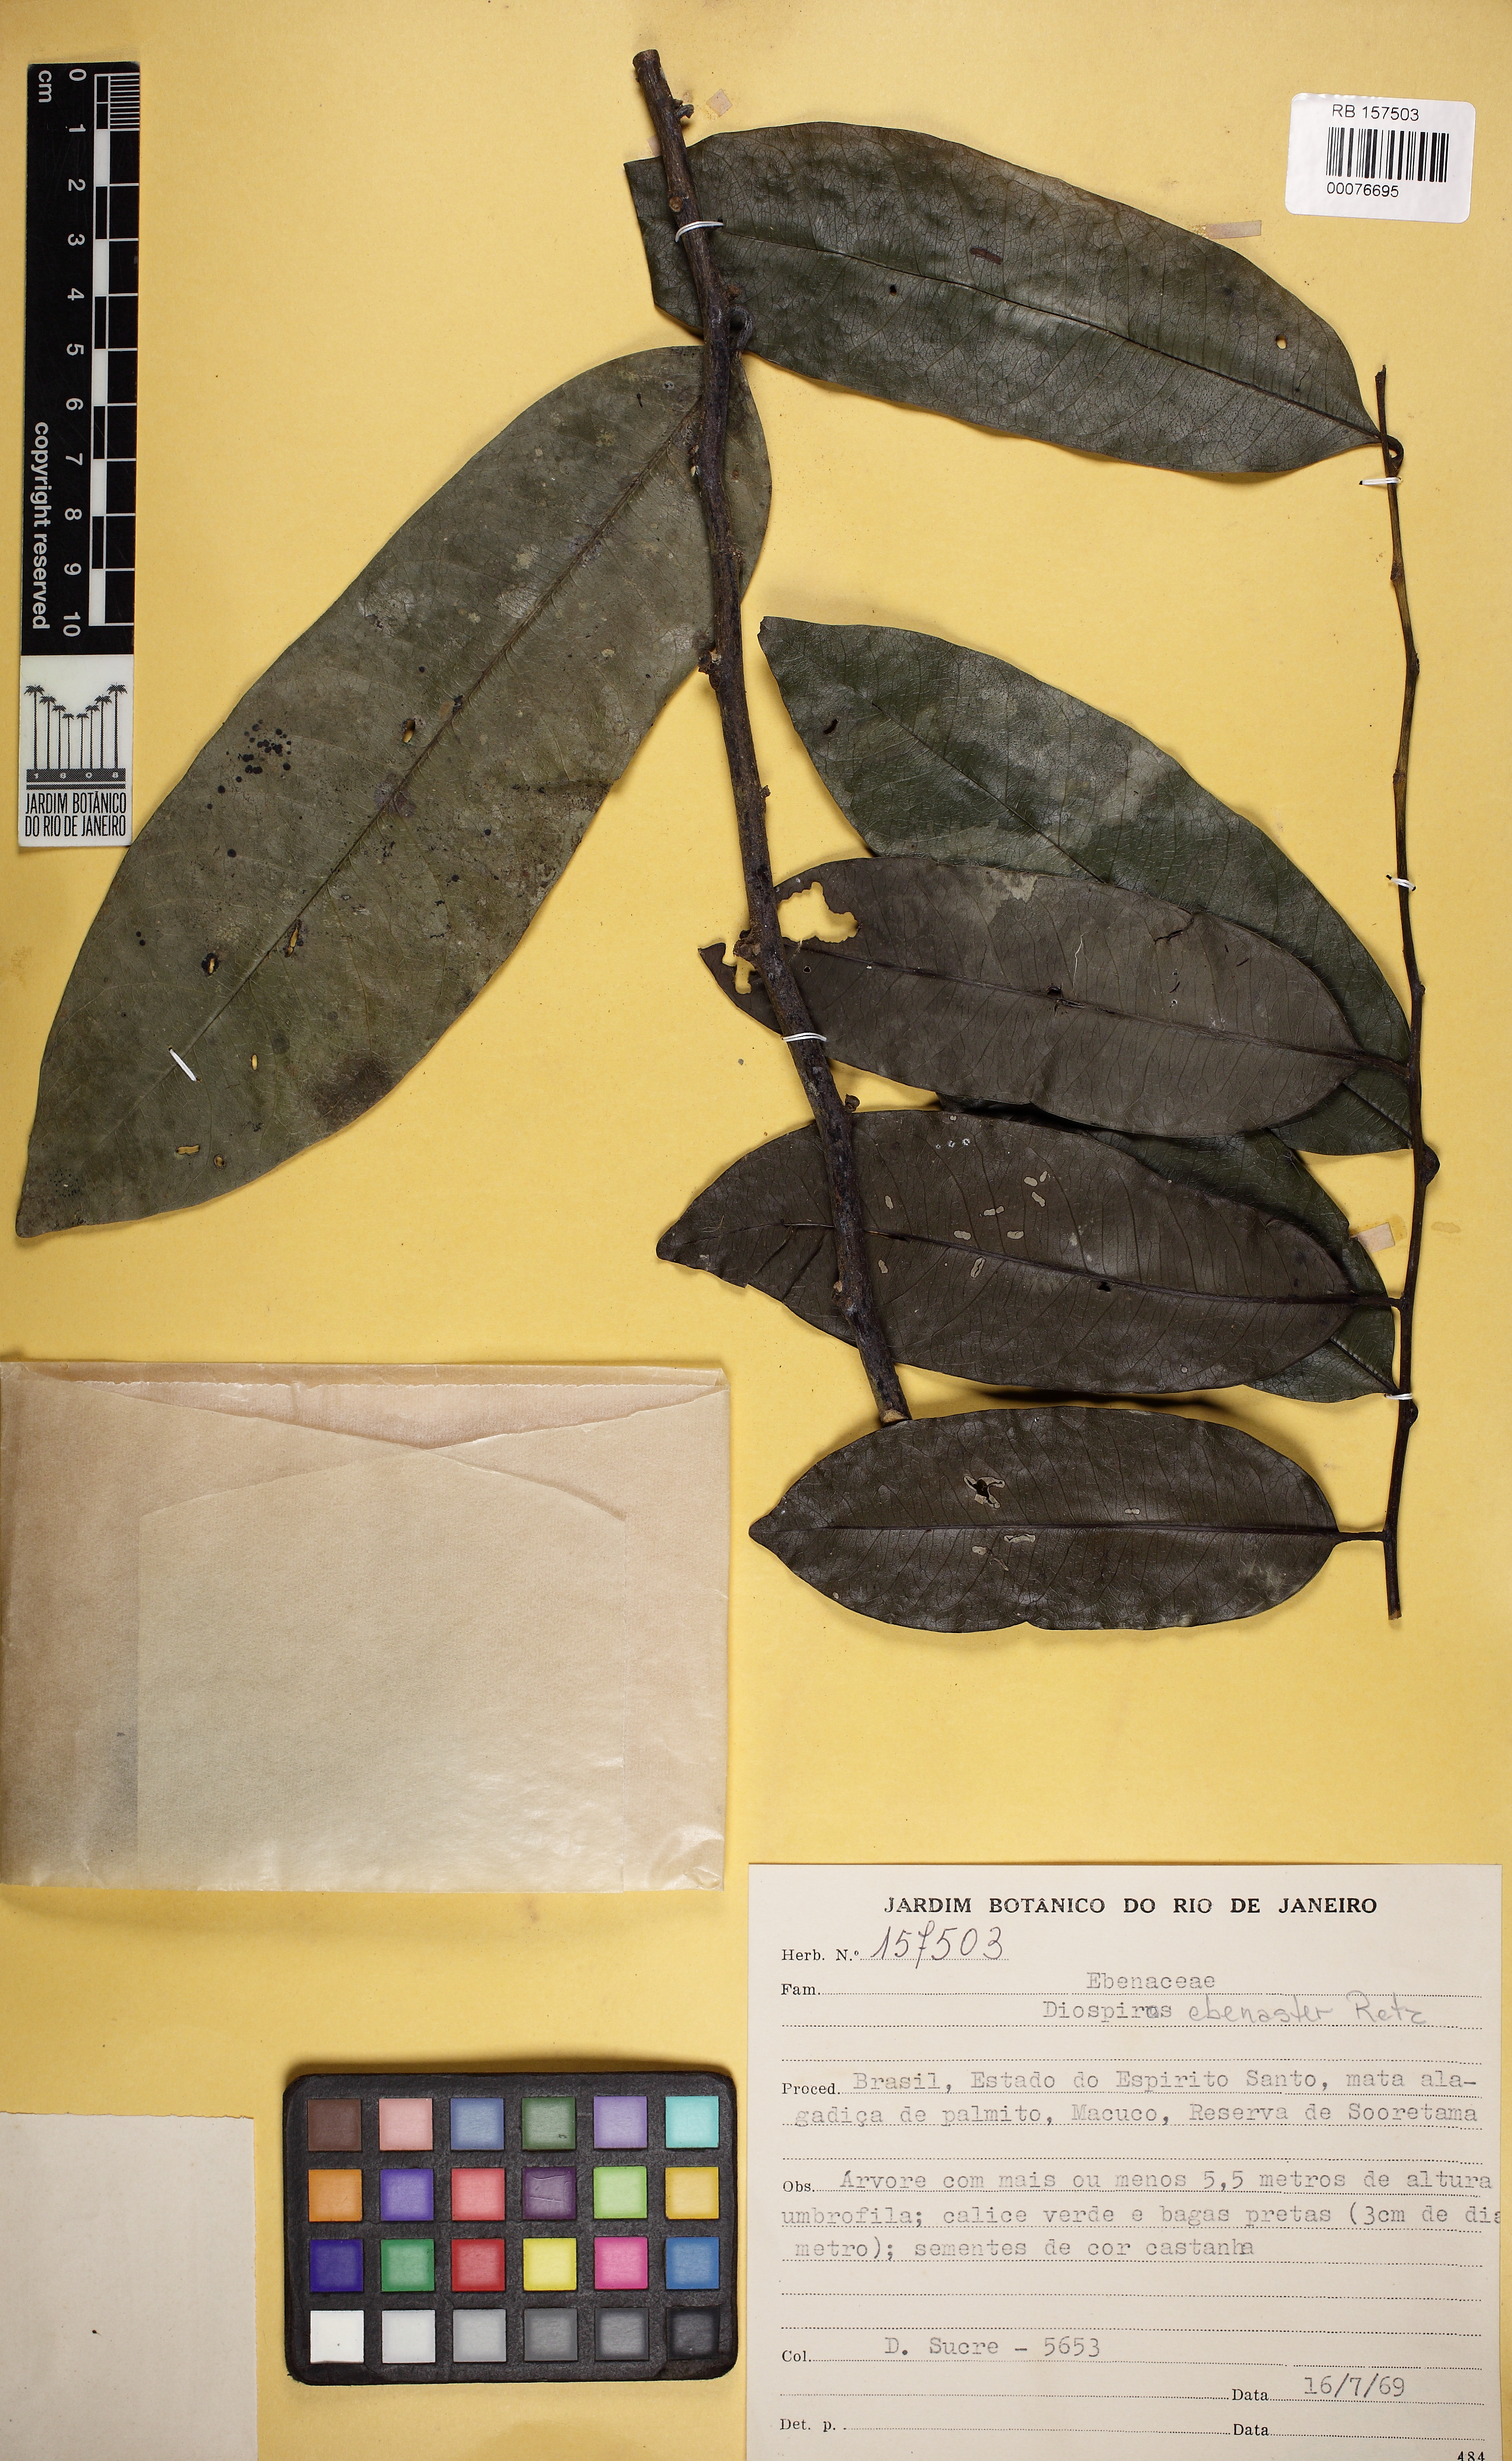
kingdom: Plantae
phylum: Tracheophyta
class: Magnoliopsida
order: Ericales
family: Ebenaceae
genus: Diospyros
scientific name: Diospyros ebenaster
